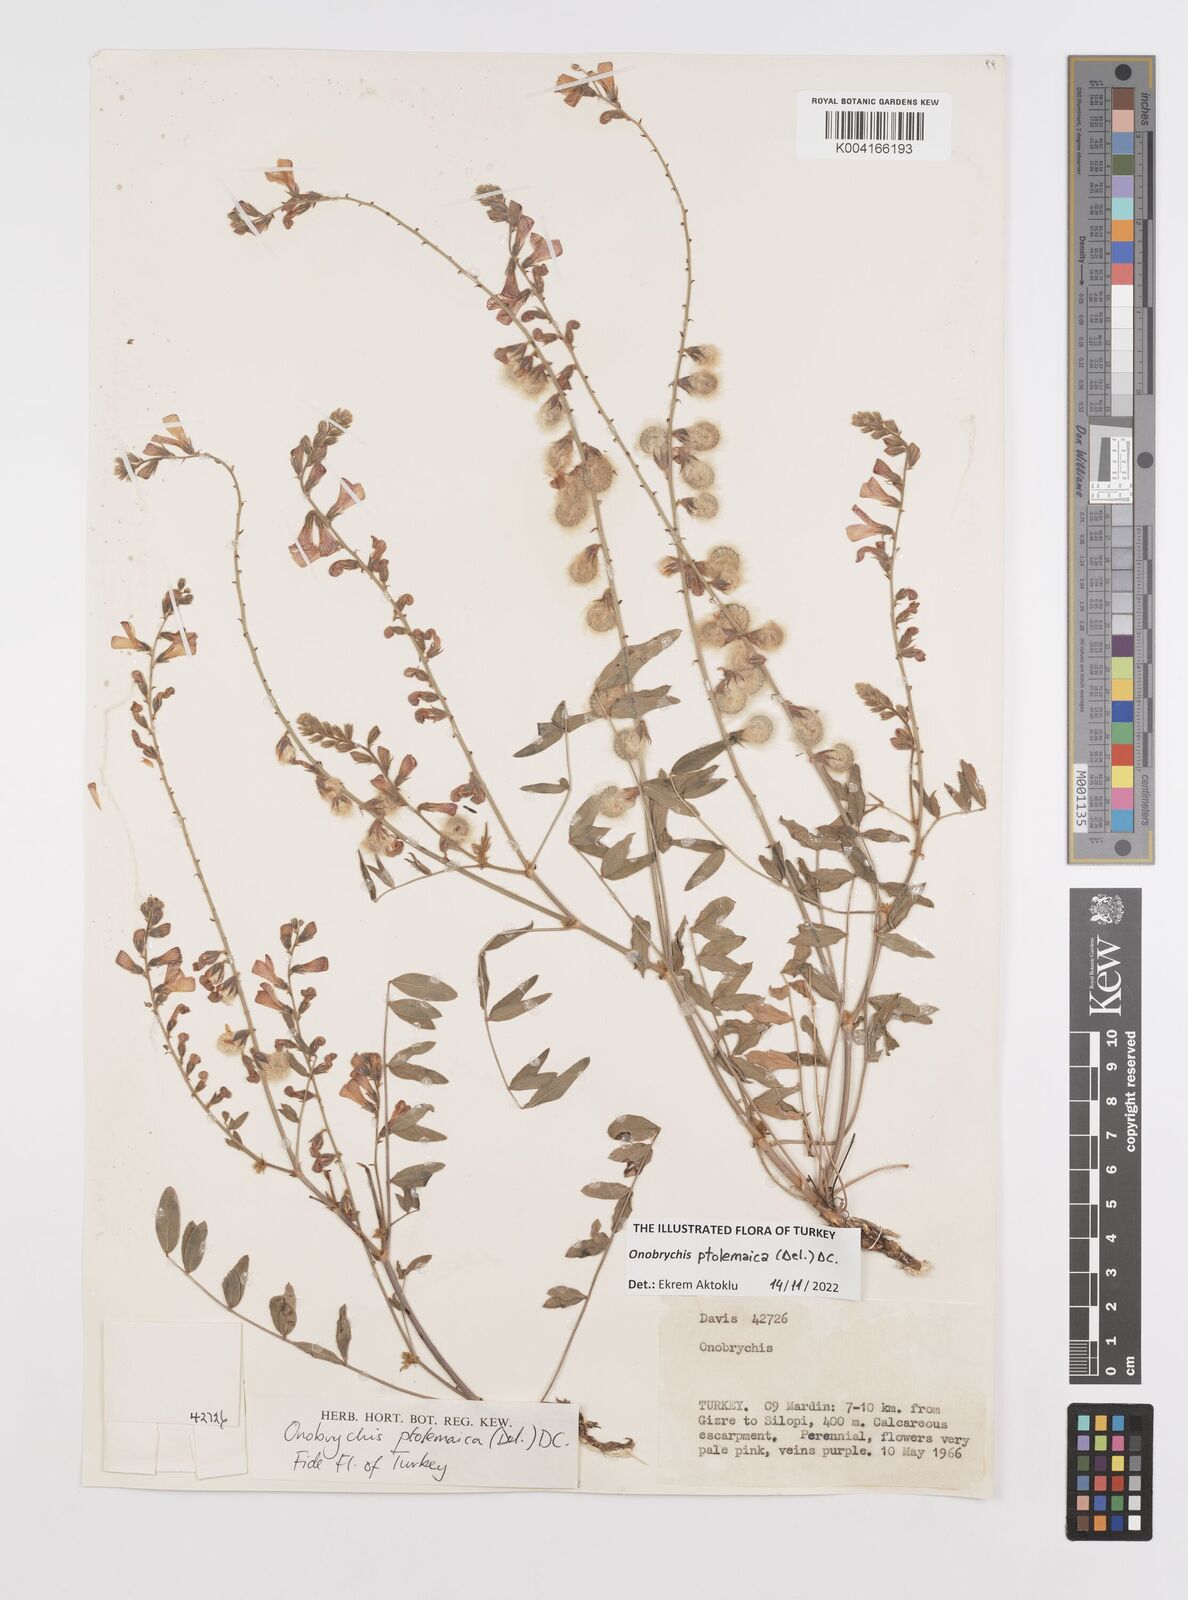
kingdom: Plantae
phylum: Tracheophyta
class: Magnoliopsida
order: Fabales
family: Fabaceae
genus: Onobrychis
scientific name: Onobrychis ptolemaica
